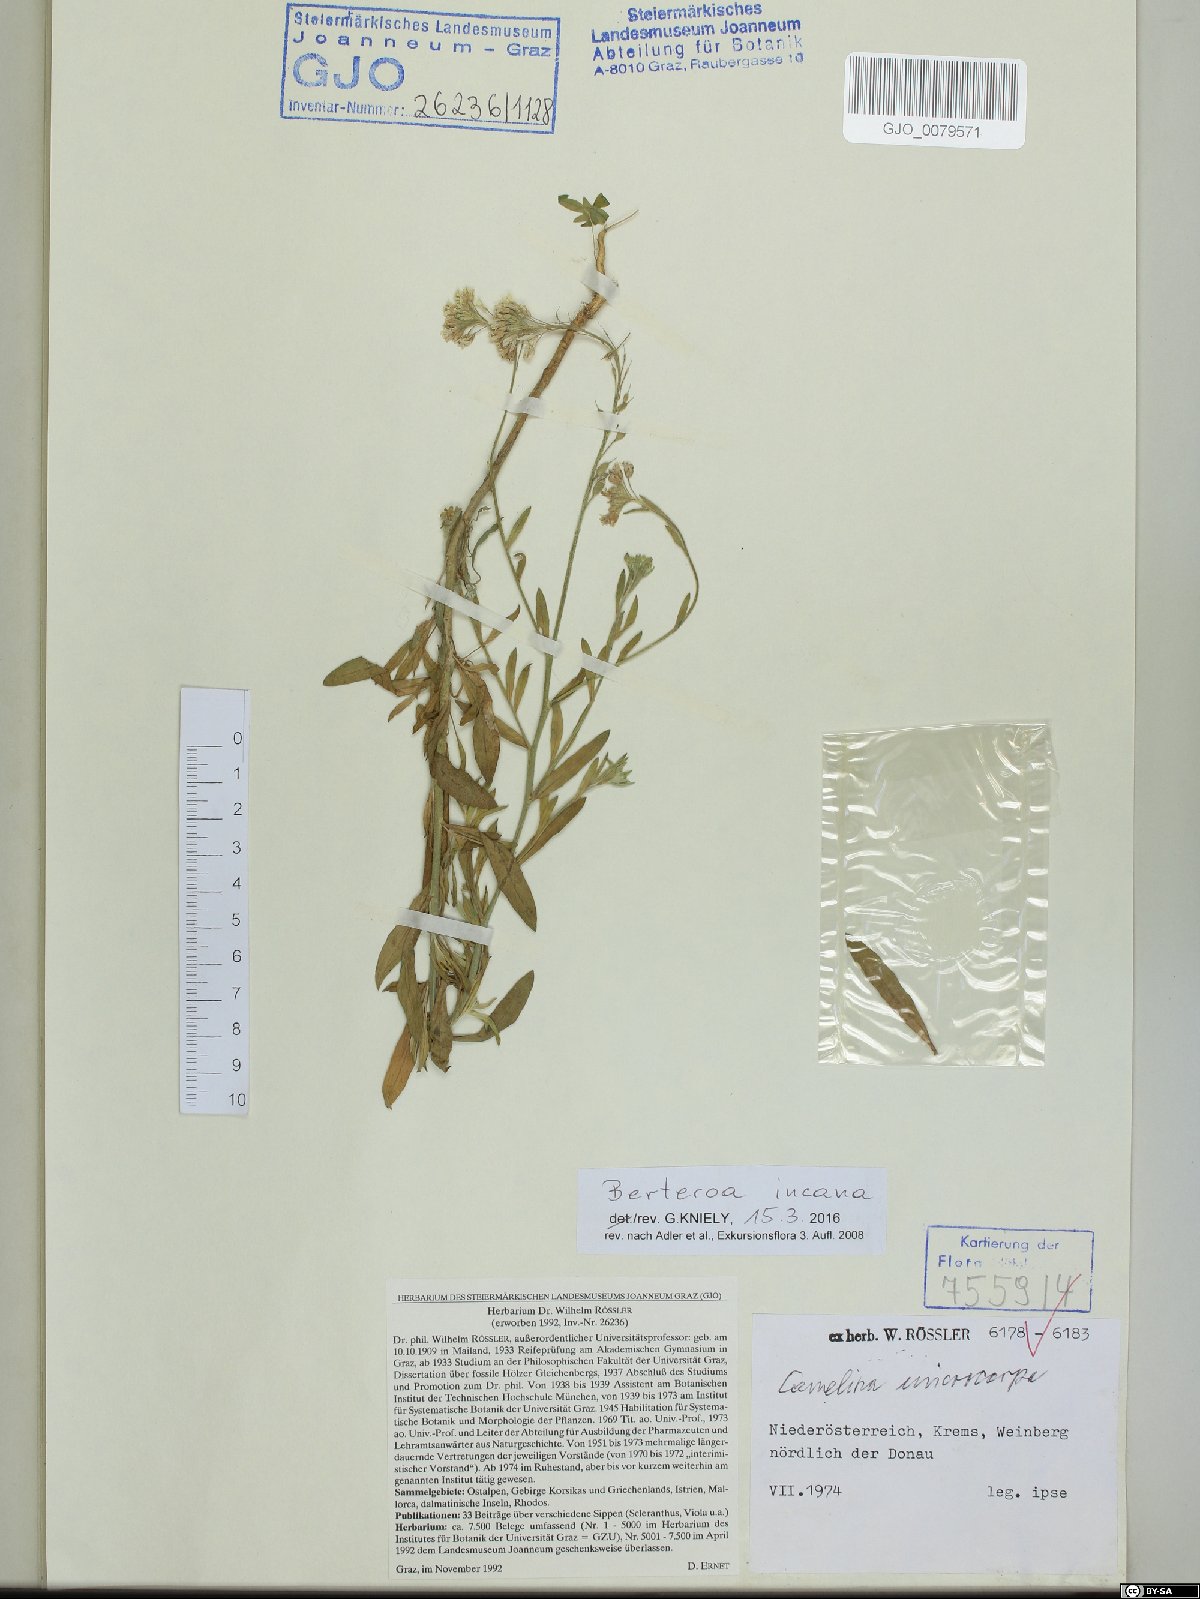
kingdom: Plantae
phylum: Tracheophyta
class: Magnoliopsida
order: Brassicales
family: Brassicaceae
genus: Berteroa
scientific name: Berteroa incana
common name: Hoary alison
